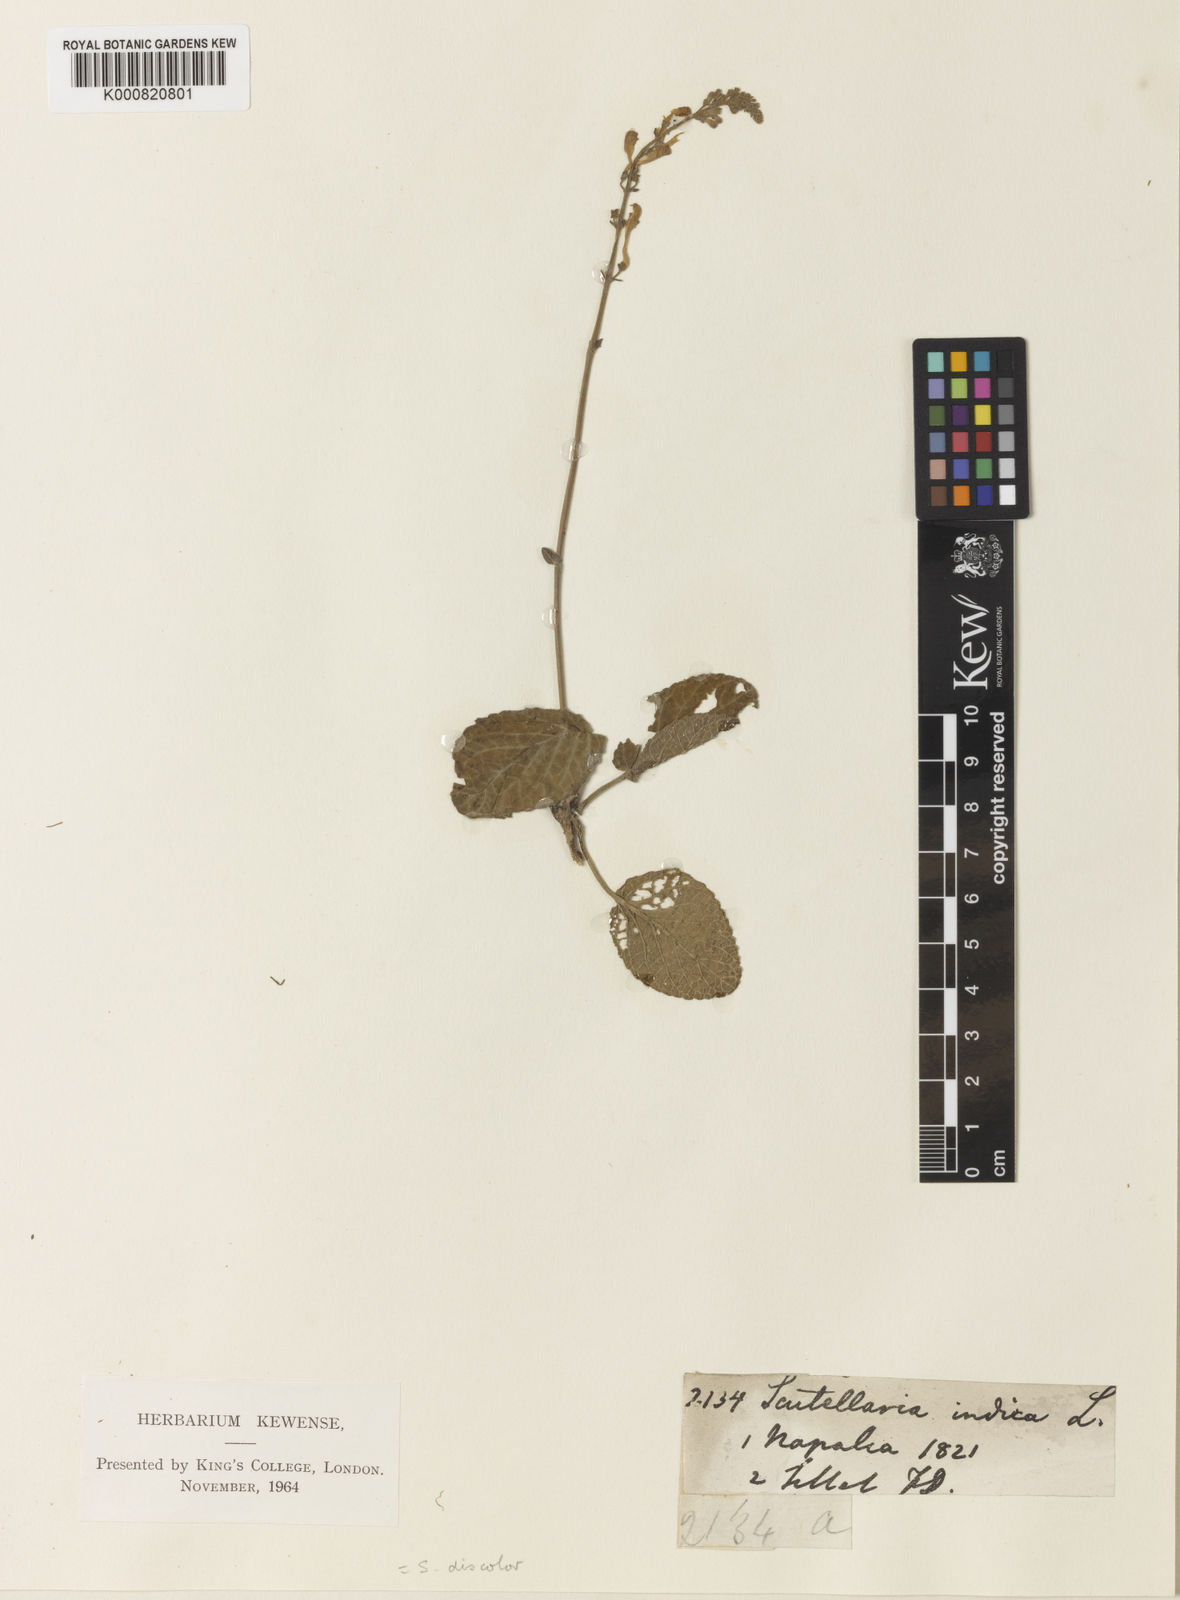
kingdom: Plantae
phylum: Tracheophyta
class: Magnoliopsida
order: Lamiales
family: Lamiaceae
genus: Scutellaria
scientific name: Scutellaria
